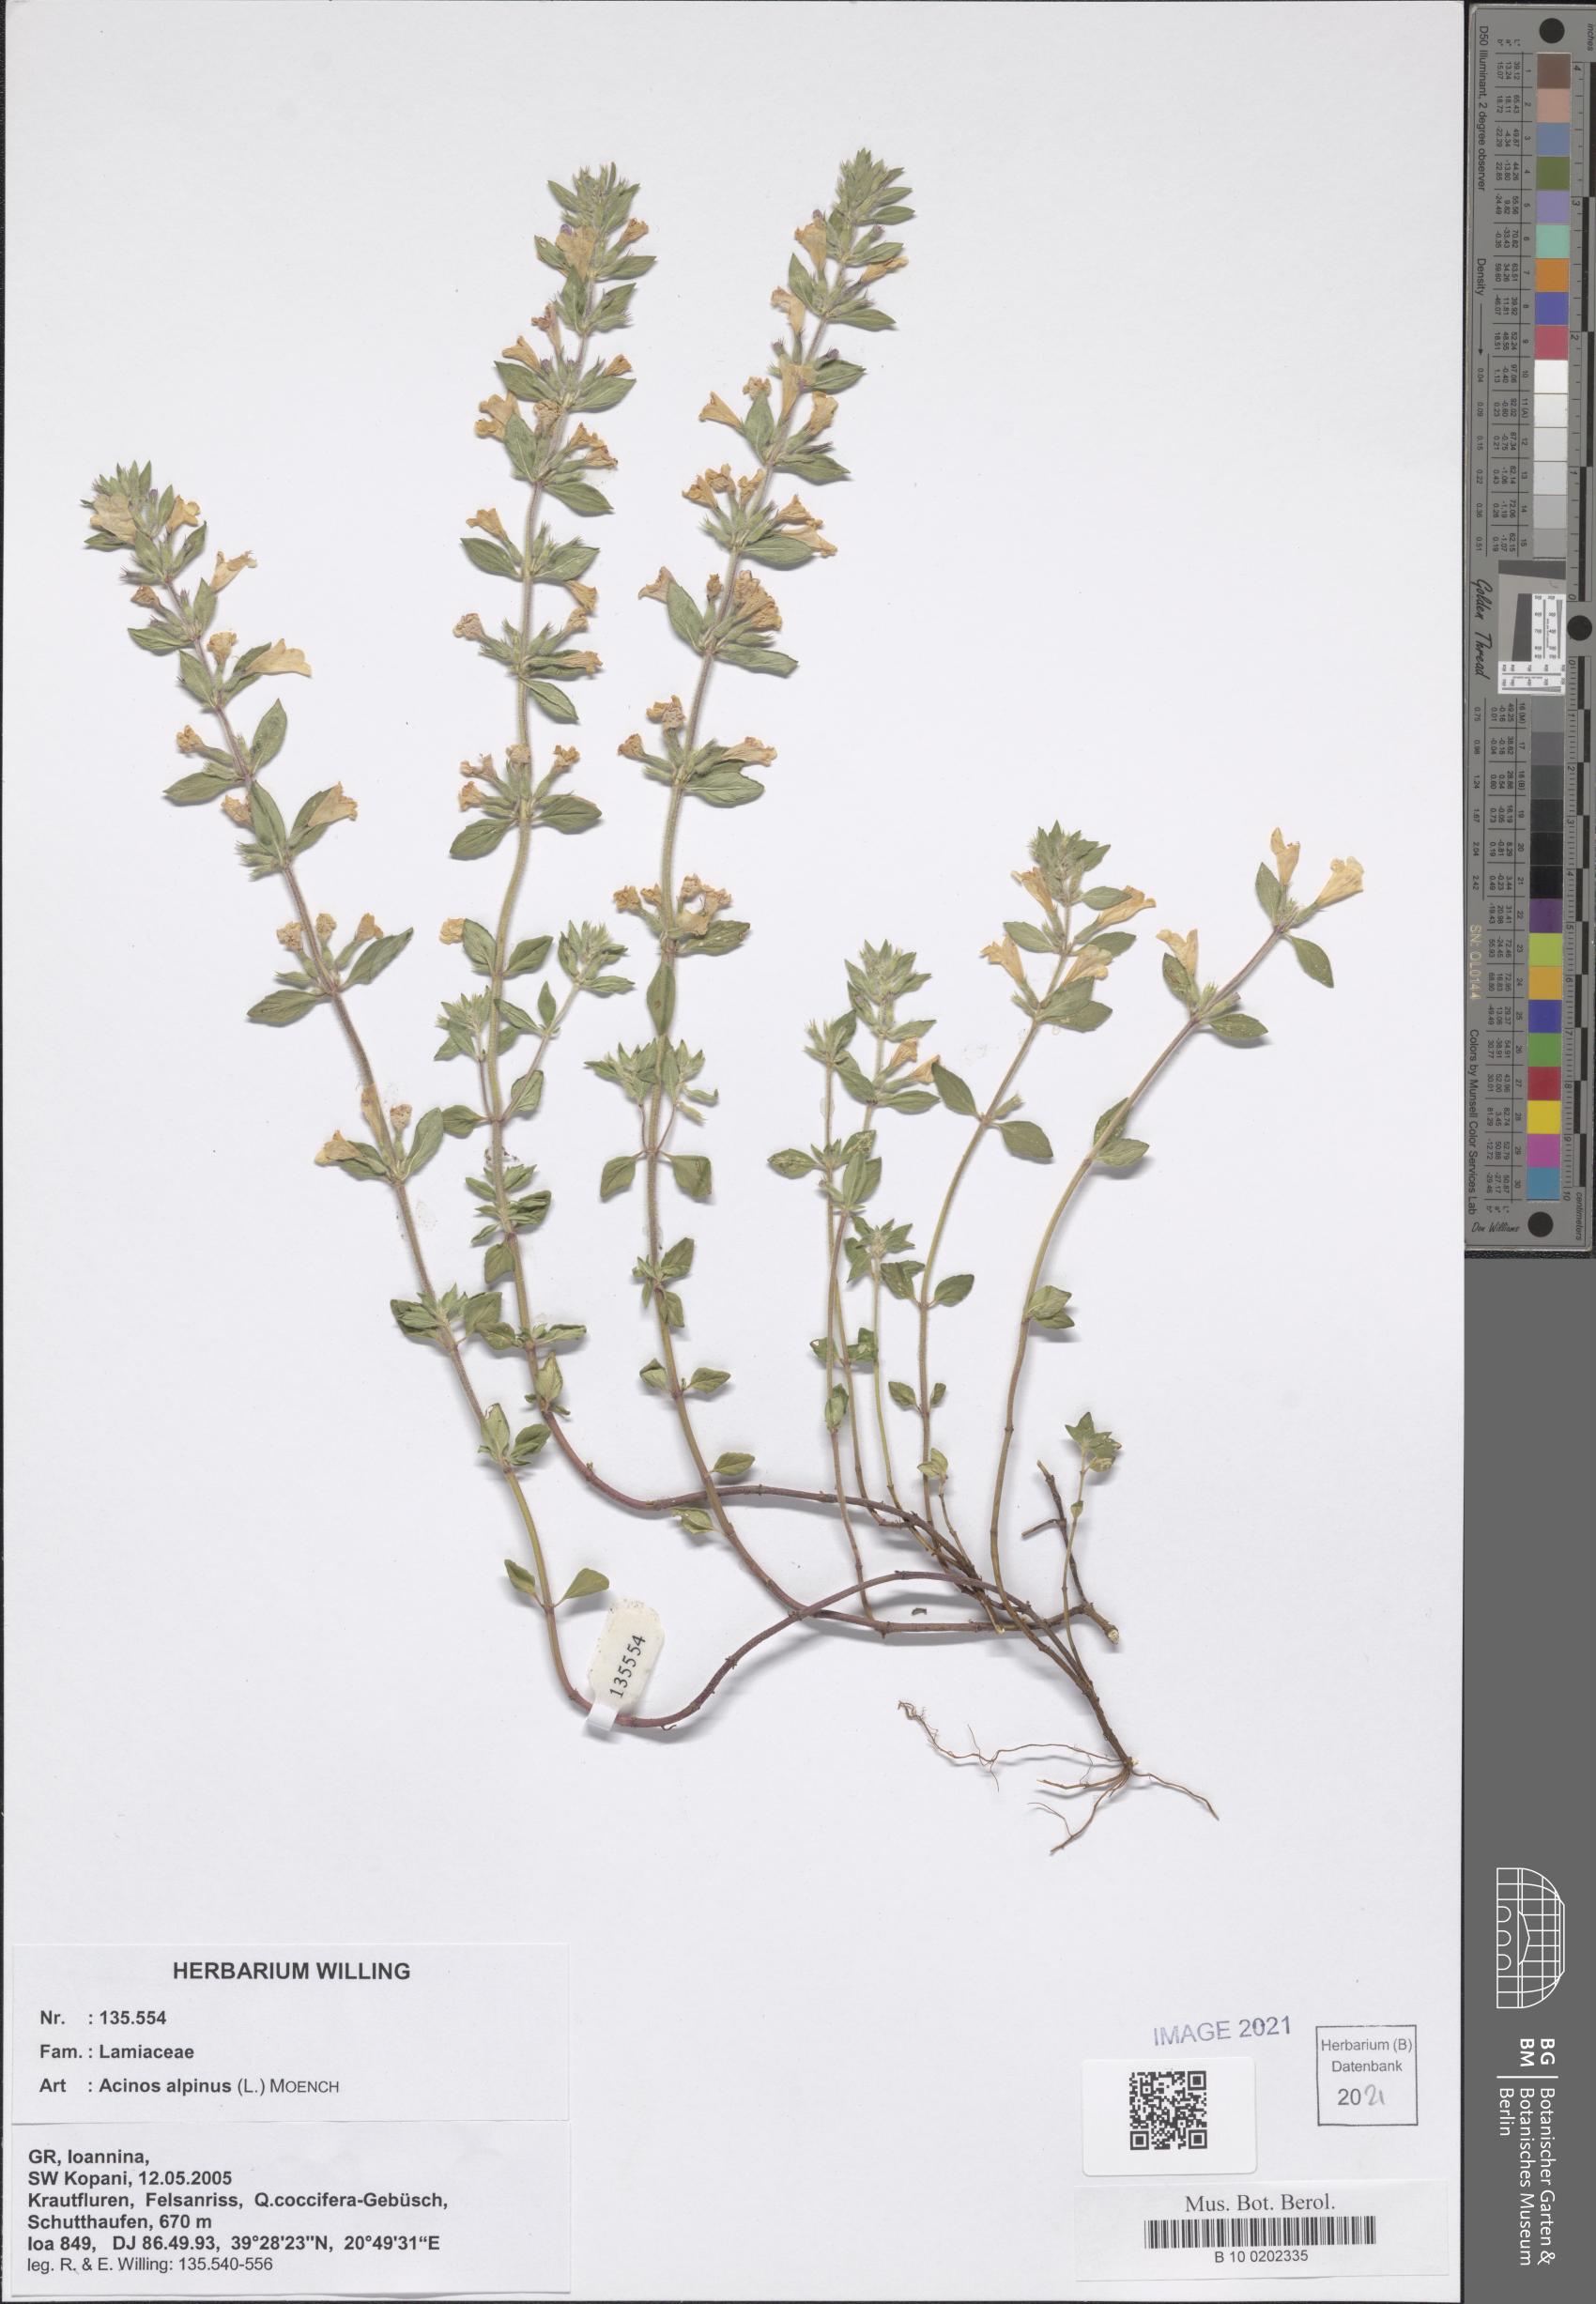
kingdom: Plantae
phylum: Tracheophyta
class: Magnoliopsida
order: Lamiales
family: Lamiaceae
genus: Clinopodium
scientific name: Clinopodium alpinum
